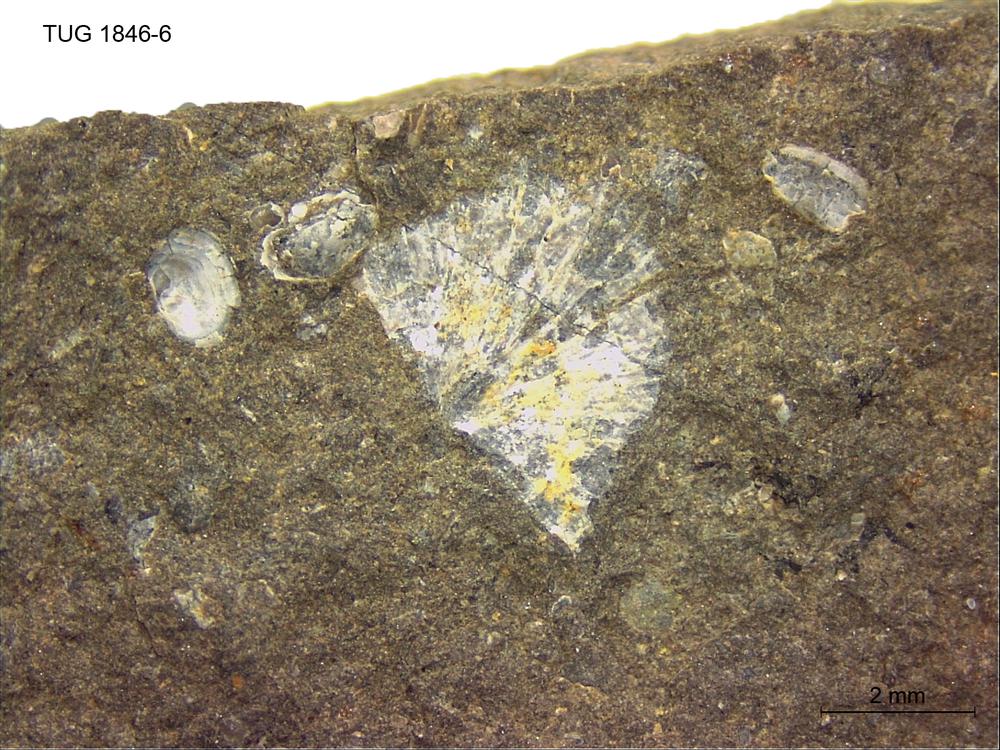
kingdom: Animalia
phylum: Brachiopoda
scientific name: Brachiopoda
